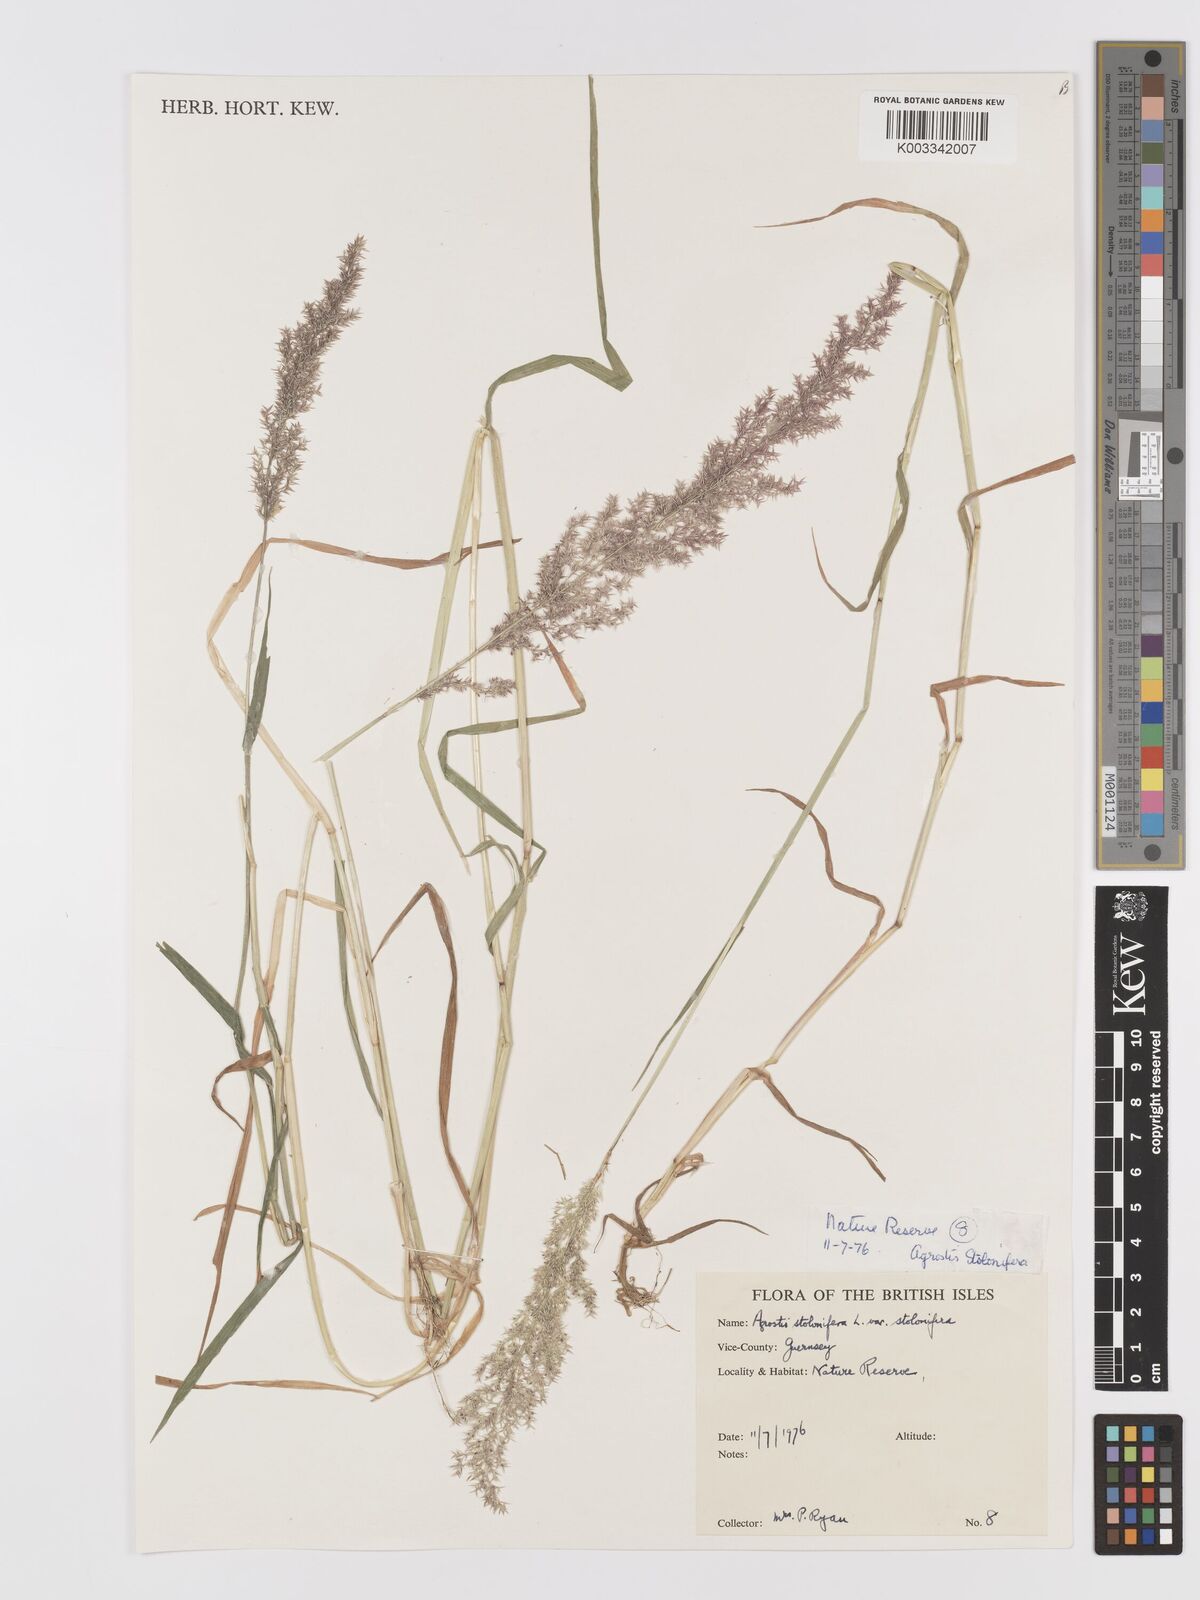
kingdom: Plantae
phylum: Tracheophyta
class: Liliopsida
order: Poales
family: Poaceae
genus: Agrostis
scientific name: Agrostis stolonifera
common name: Creeping bentgrass
